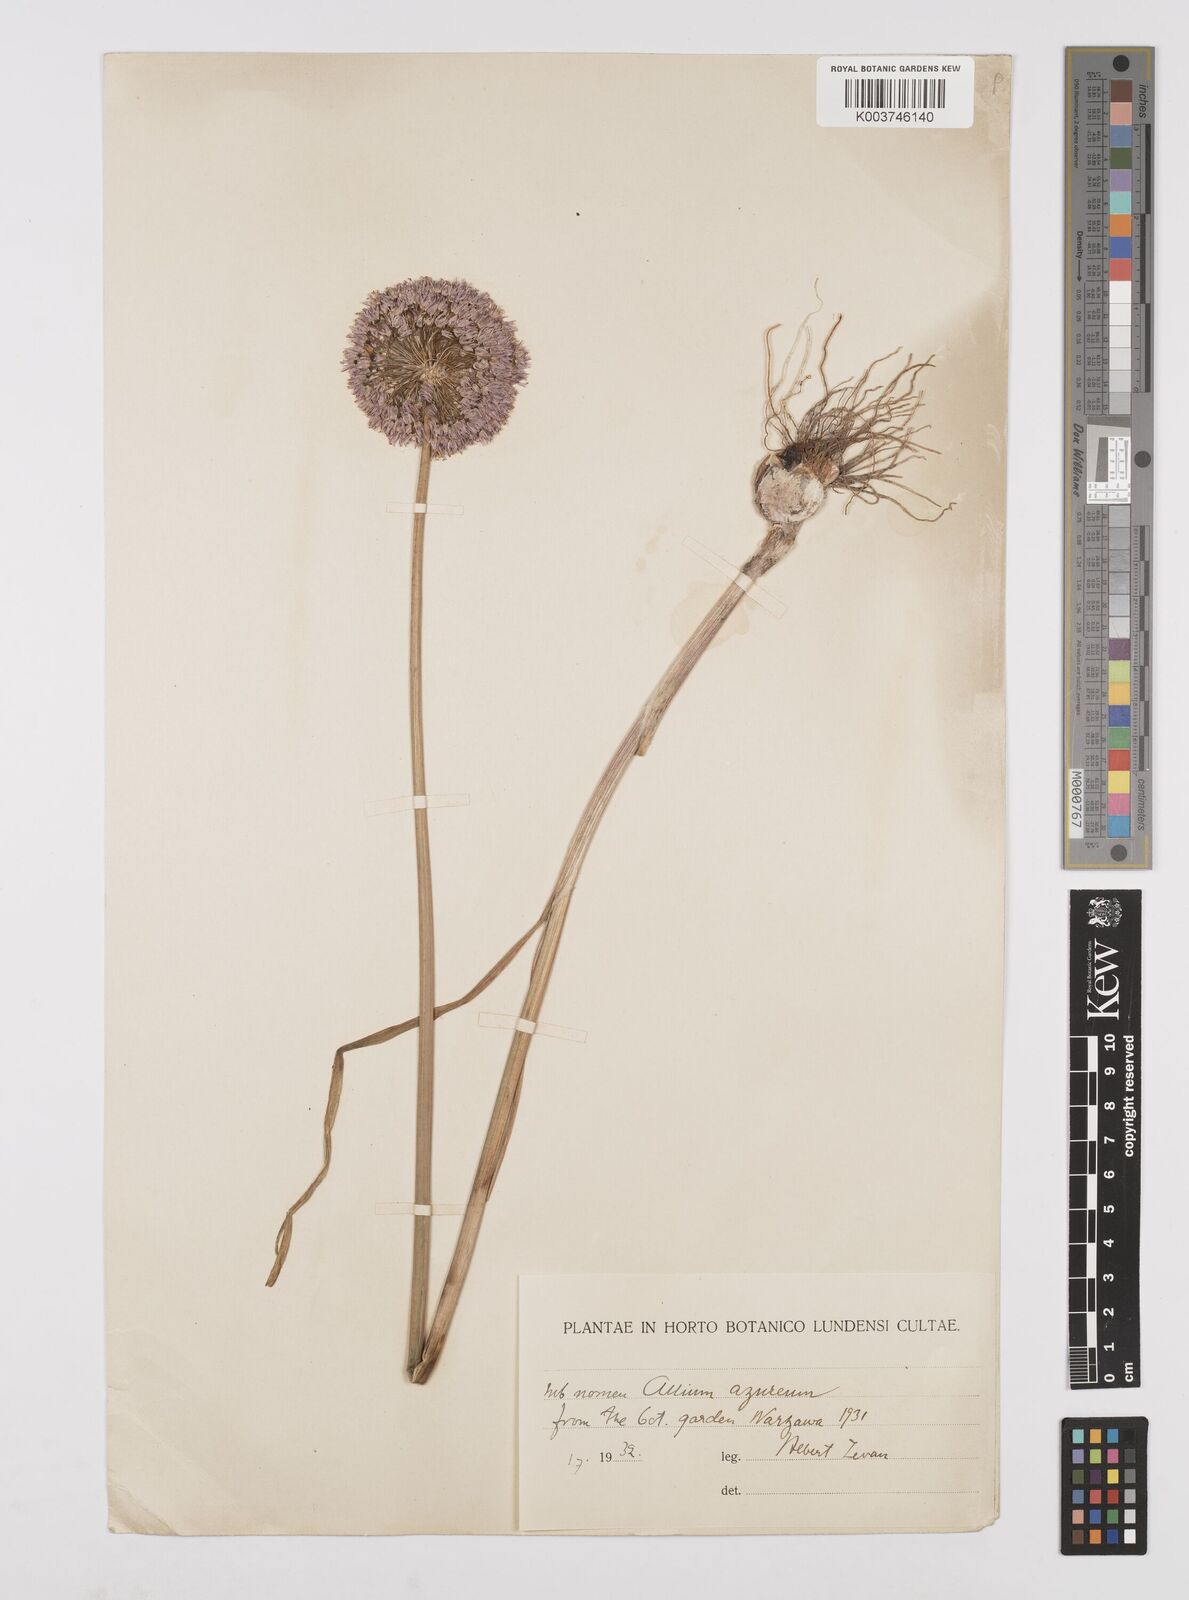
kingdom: Plantae
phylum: Tracheophyta
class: Liliopsida
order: Asparagales
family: Amaryllidaceae
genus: Allium
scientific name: Allium caeruleum
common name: Blue-of-the-heavens
